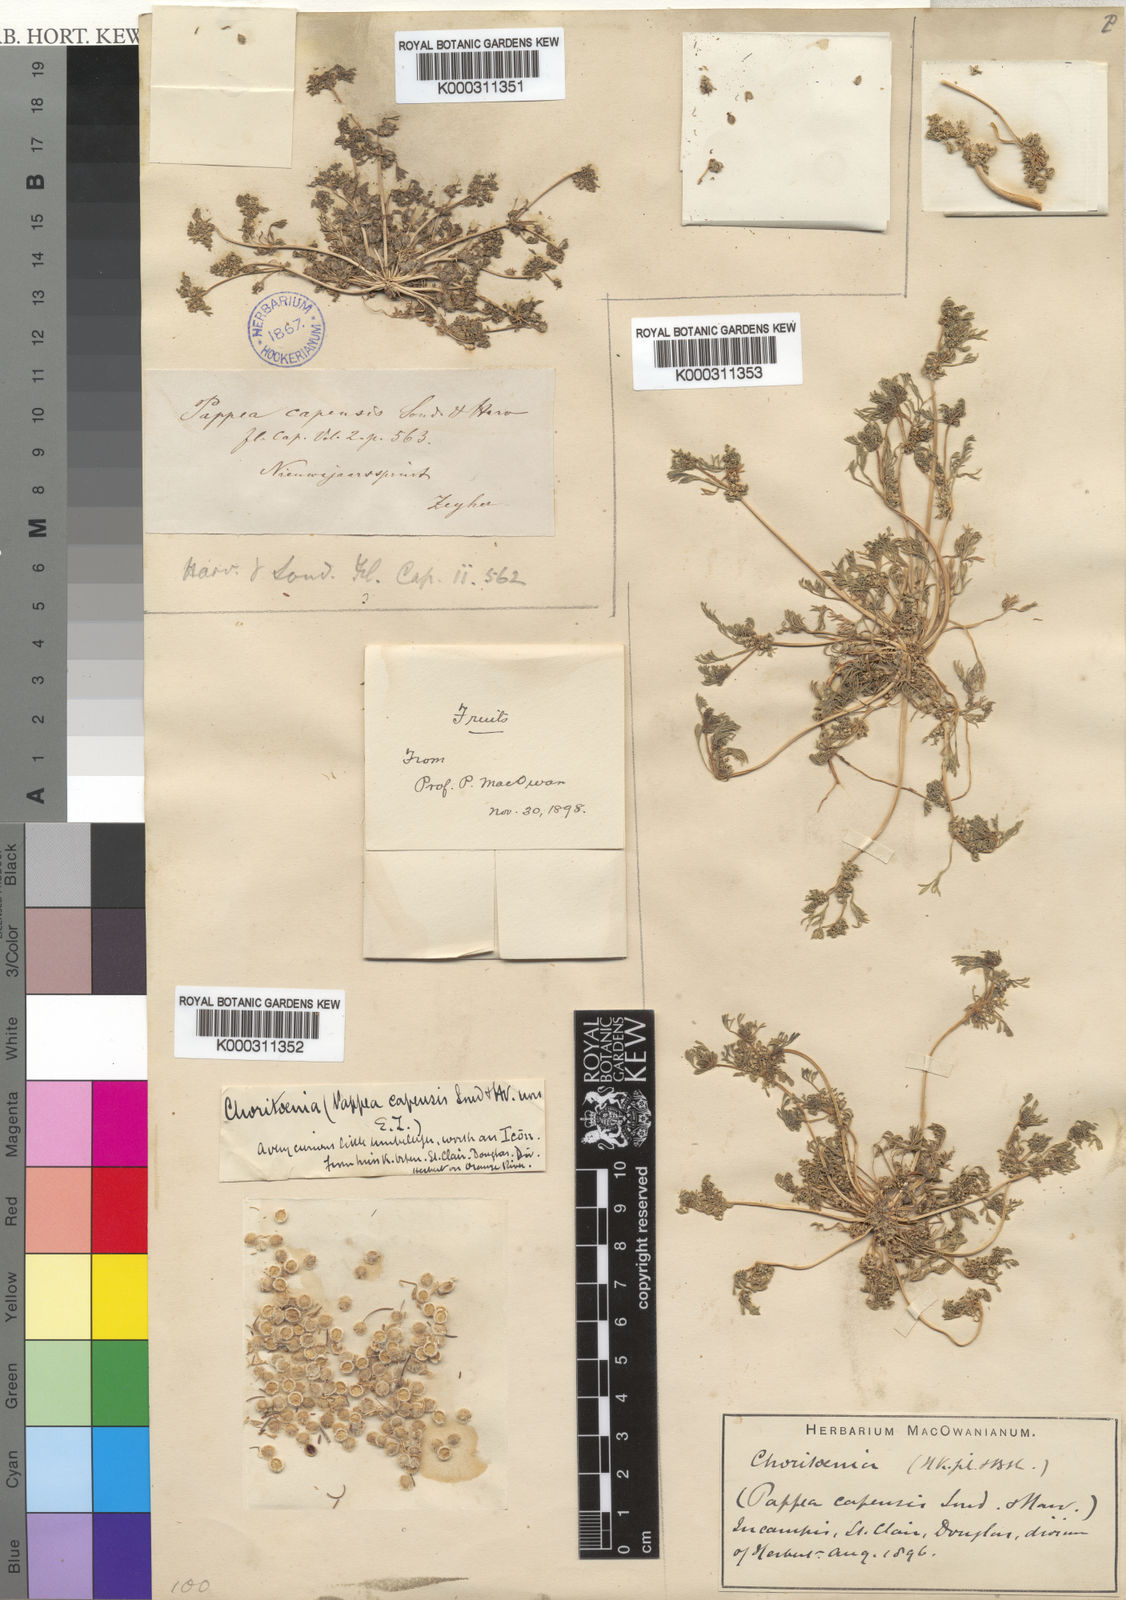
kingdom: Plantae
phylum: Tracheophyta
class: Magnoliopsida
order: Apiales
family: Apiaceae
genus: Choritaenia
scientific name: Choritaenia
